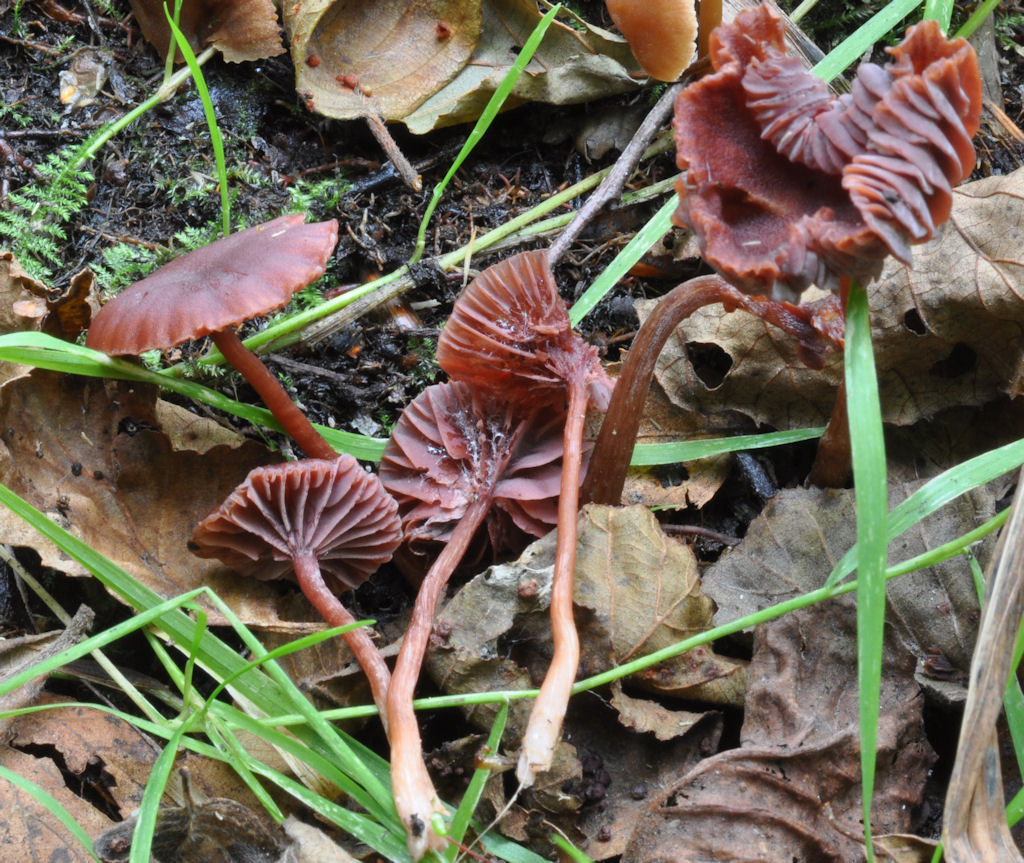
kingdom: Fungi
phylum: Basidiomycota
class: Agaricomycetes
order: Agaricales
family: Hydnangiaceae
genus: Laccaria
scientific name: Laccaria purpureobadia
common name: purpurbrun ametysthat
